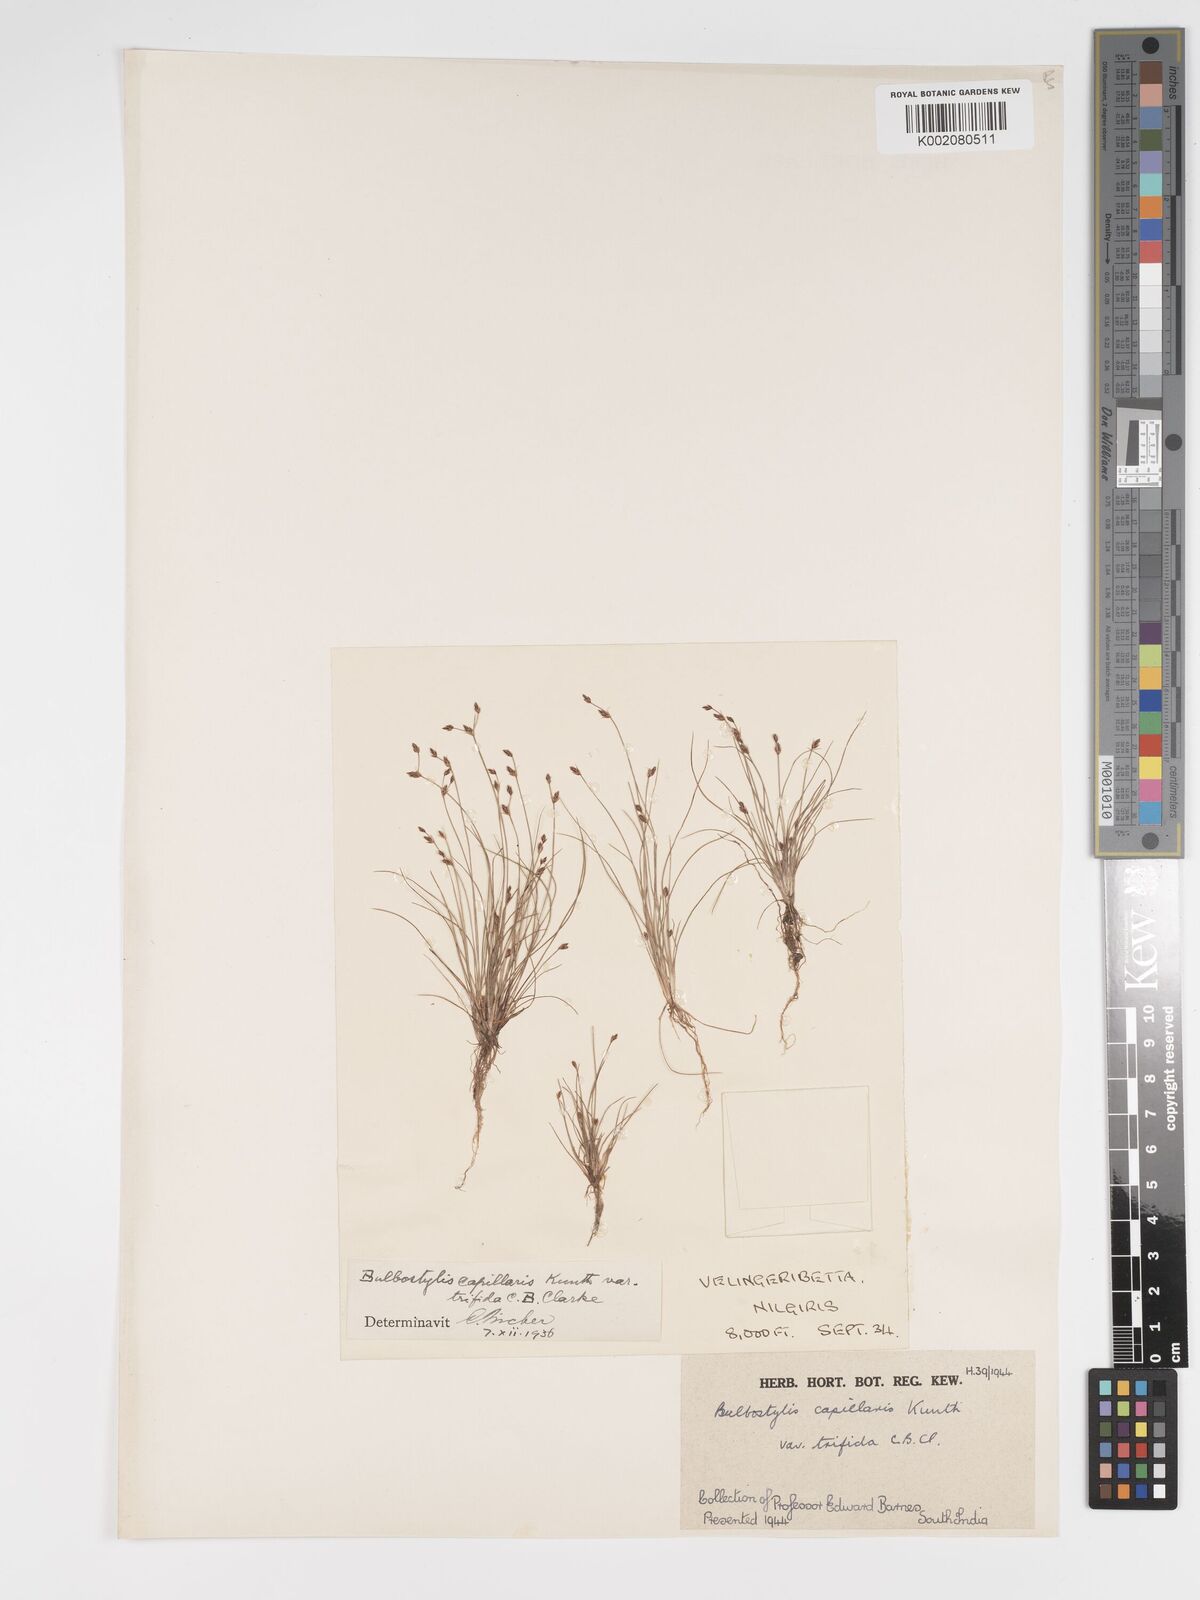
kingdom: Plantae
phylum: Tracheophyta
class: Liliopsida
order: Poales
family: Cyperaceae
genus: Bulbostylis
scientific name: Bulbostylis capillaris
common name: Densetuft hairsedge
